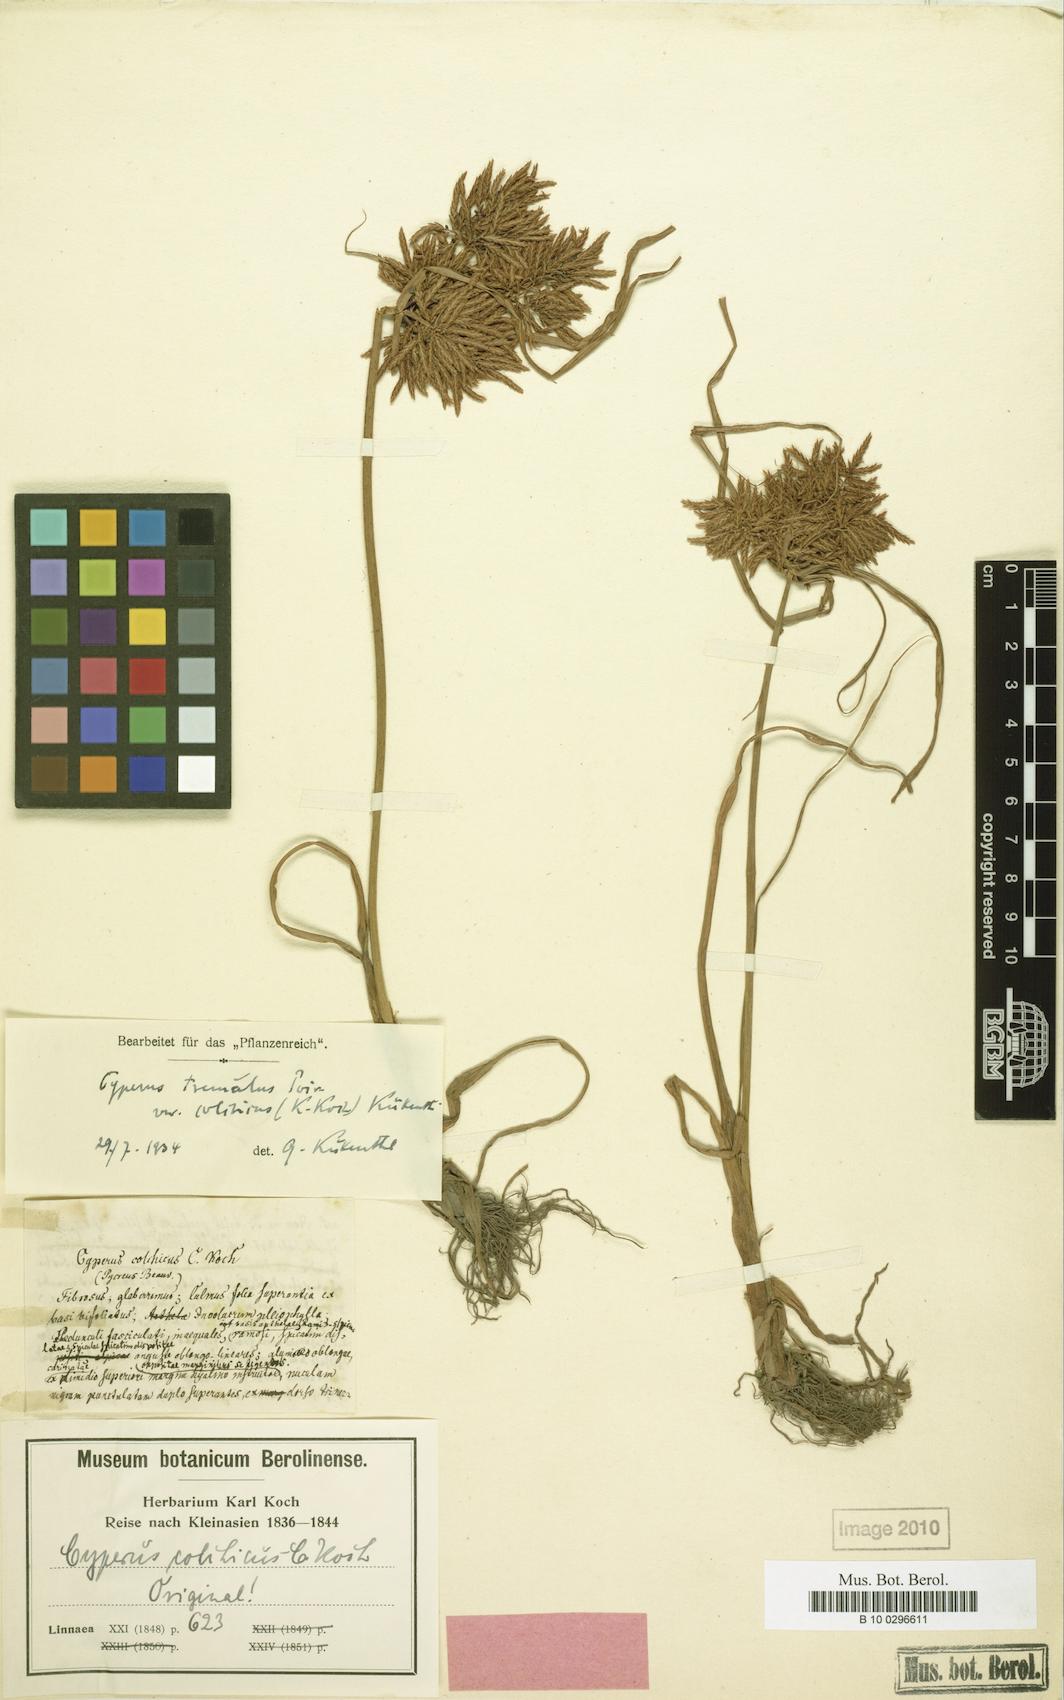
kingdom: Plantae
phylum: Tracheophyta
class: Liliopsida
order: Poales
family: Cyperaceae
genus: Cyperus
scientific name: Cyperus colchicus
